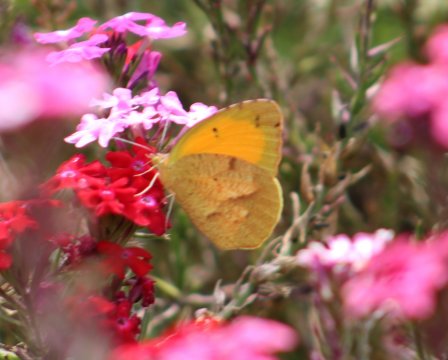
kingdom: Animalia
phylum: Arthropoda
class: Insecta
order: Lepidoptera
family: Pieridae
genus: Abaeis
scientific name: Abaeis nicippe
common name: Sleepy Orange
